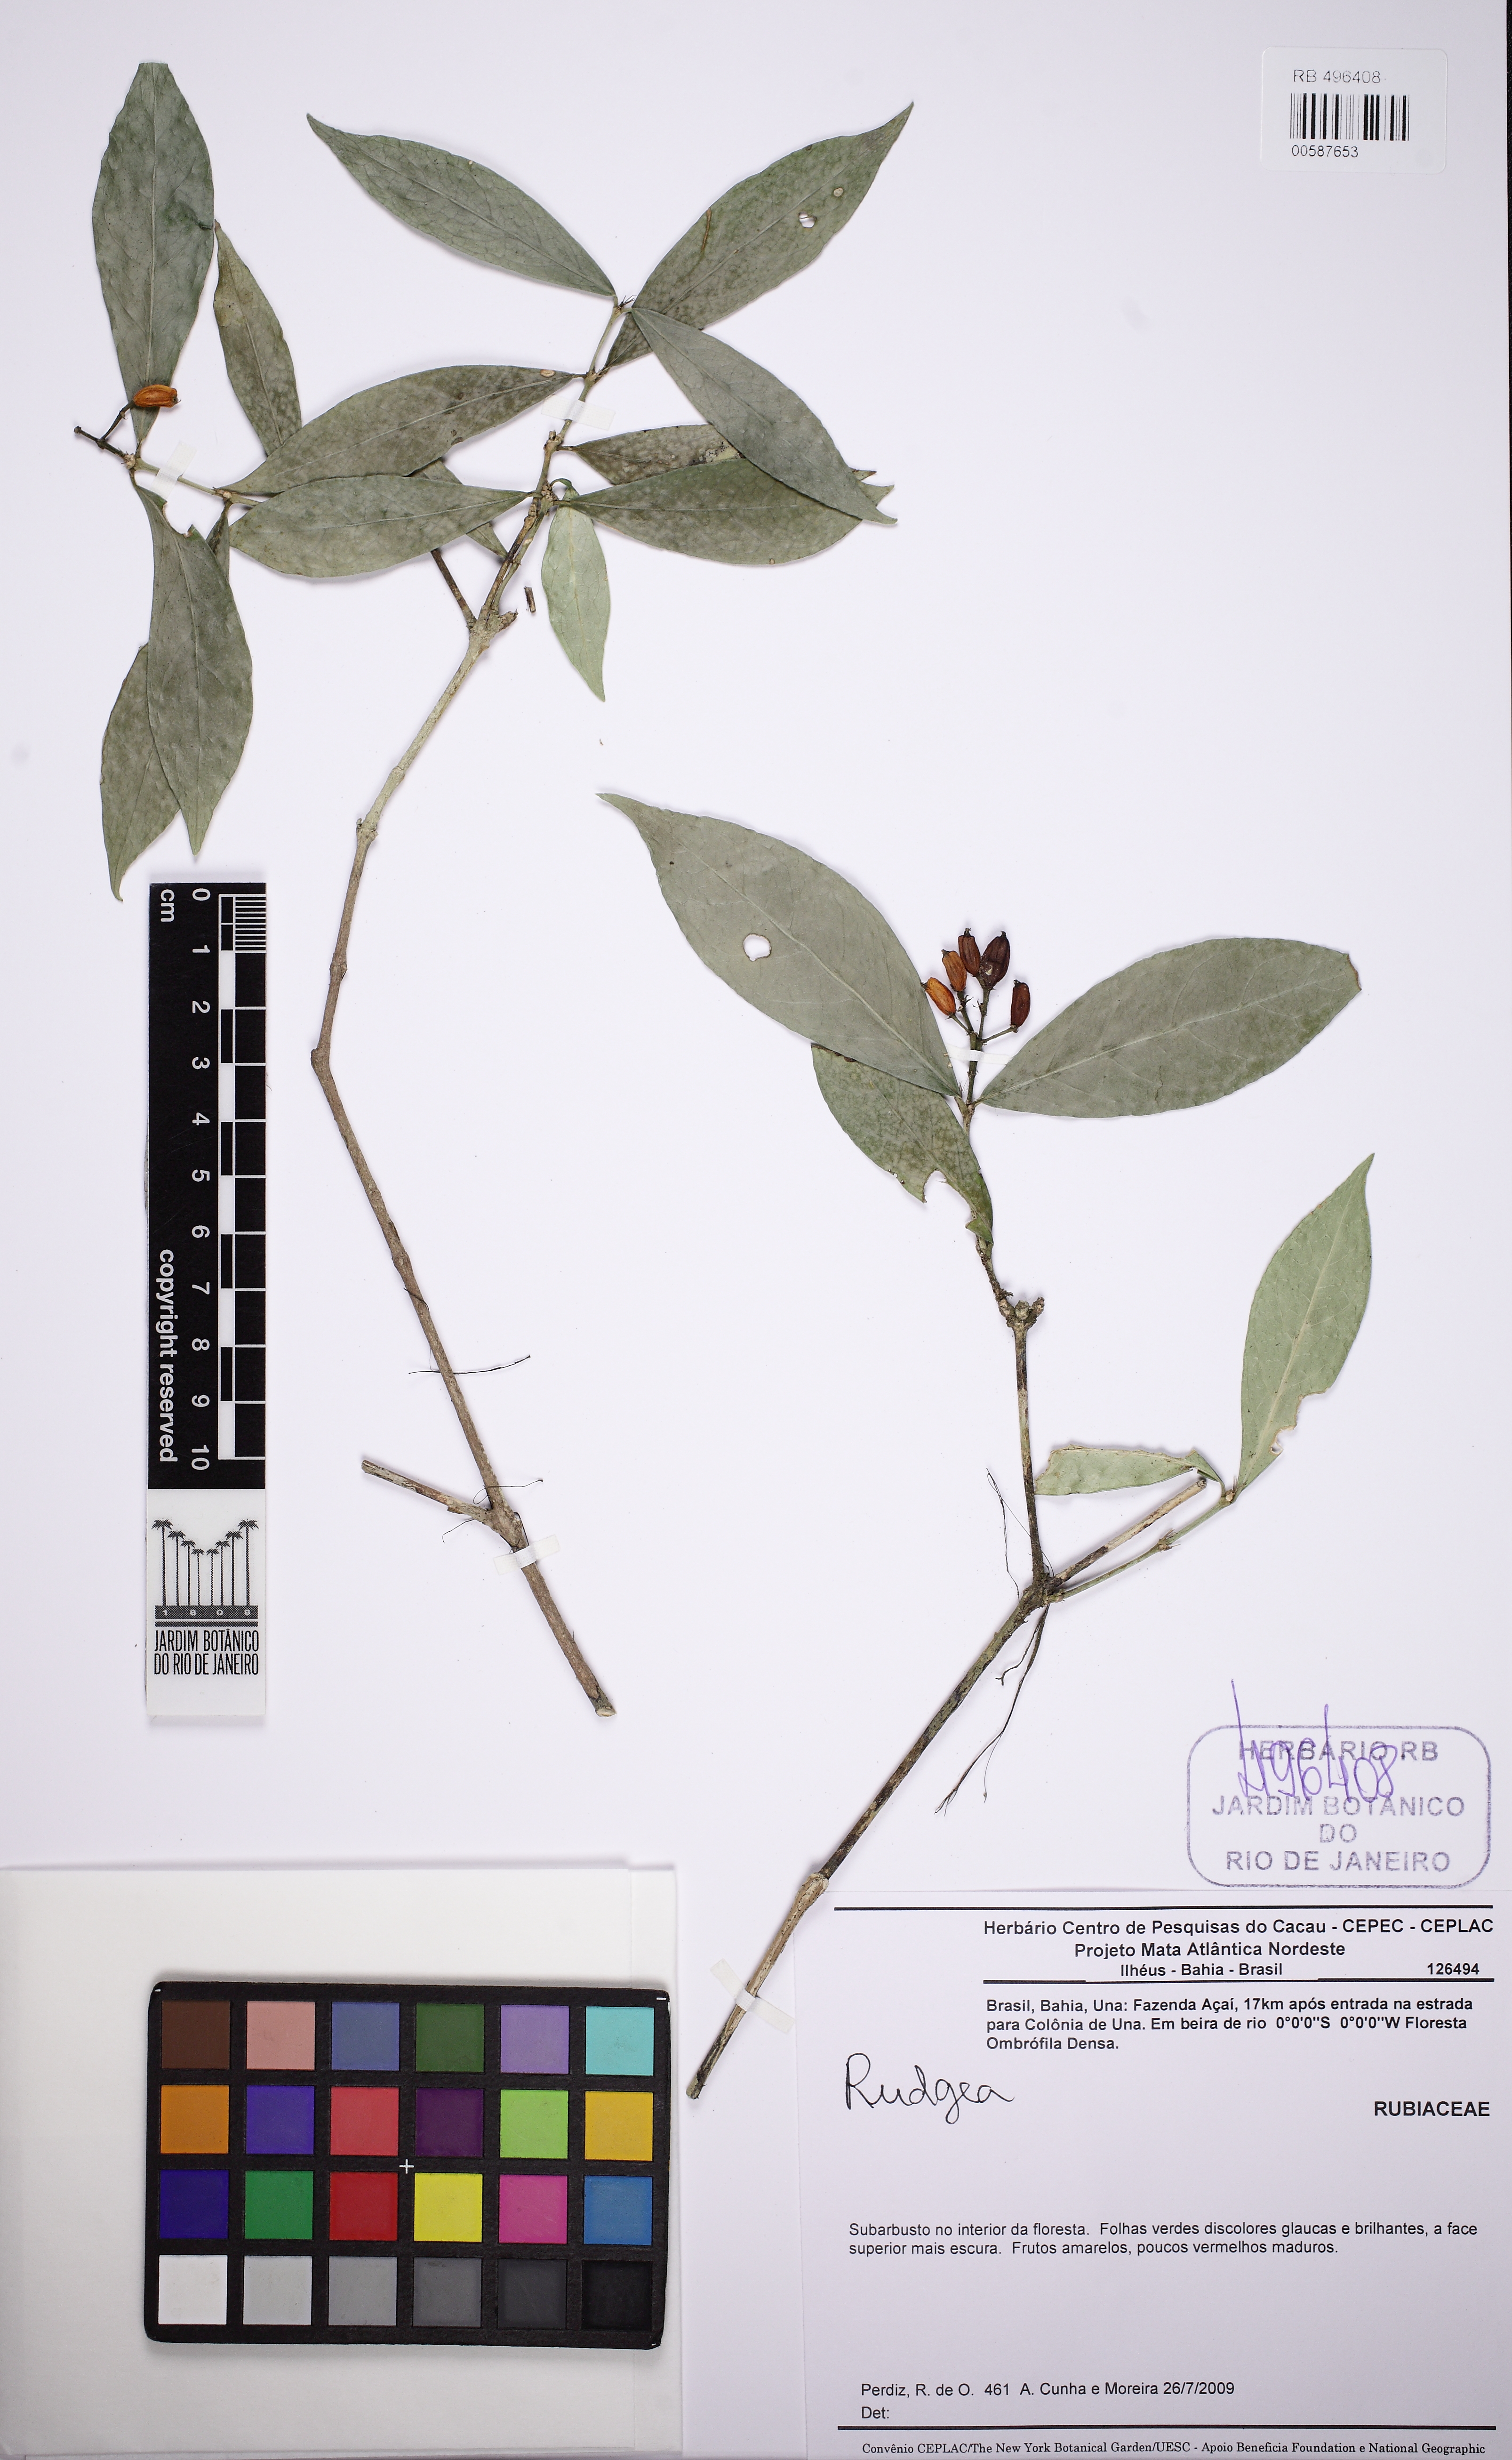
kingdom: Plantae
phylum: Tracheophyta
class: Magnoliopsida
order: Gentianales
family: Rubiaceae
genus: Rudgea
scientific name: Rudgea
